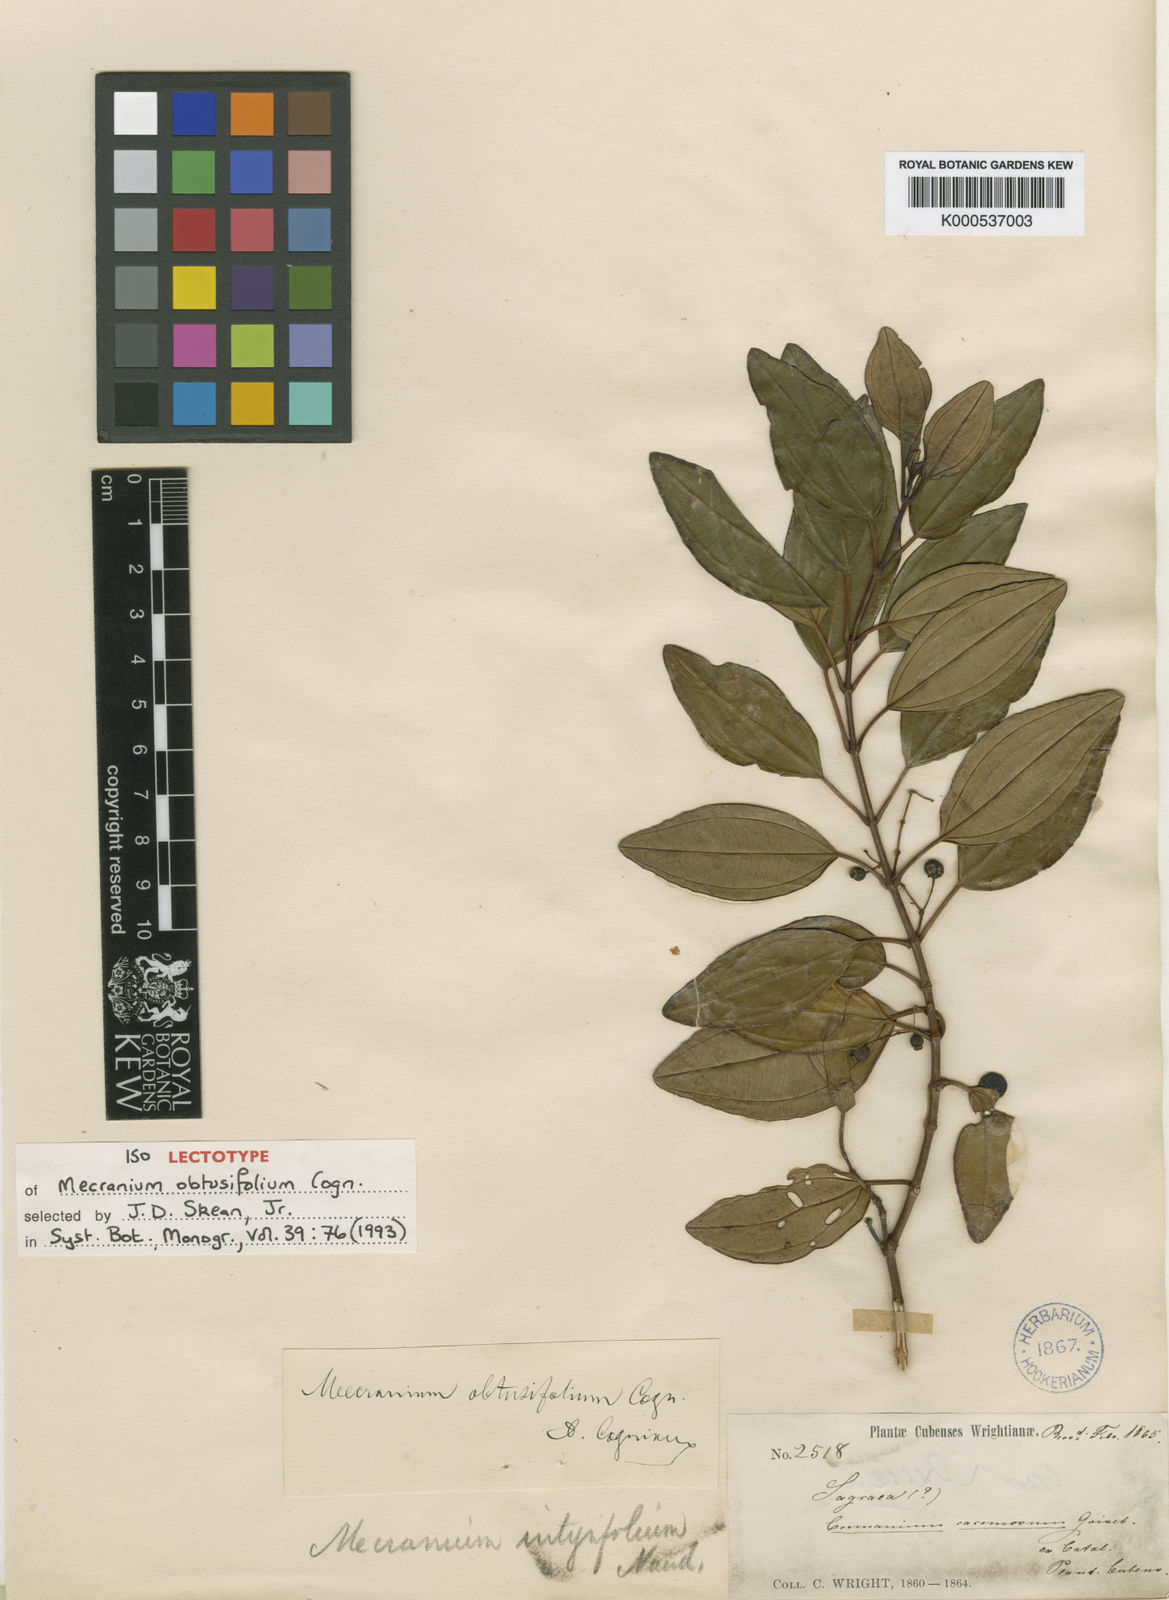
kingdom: Plantae
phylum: Tracheophyta
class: Magnoliopsida
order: Myrtales
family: Melastomataceae
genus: Miconia
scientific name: Miconia obtusifolia
